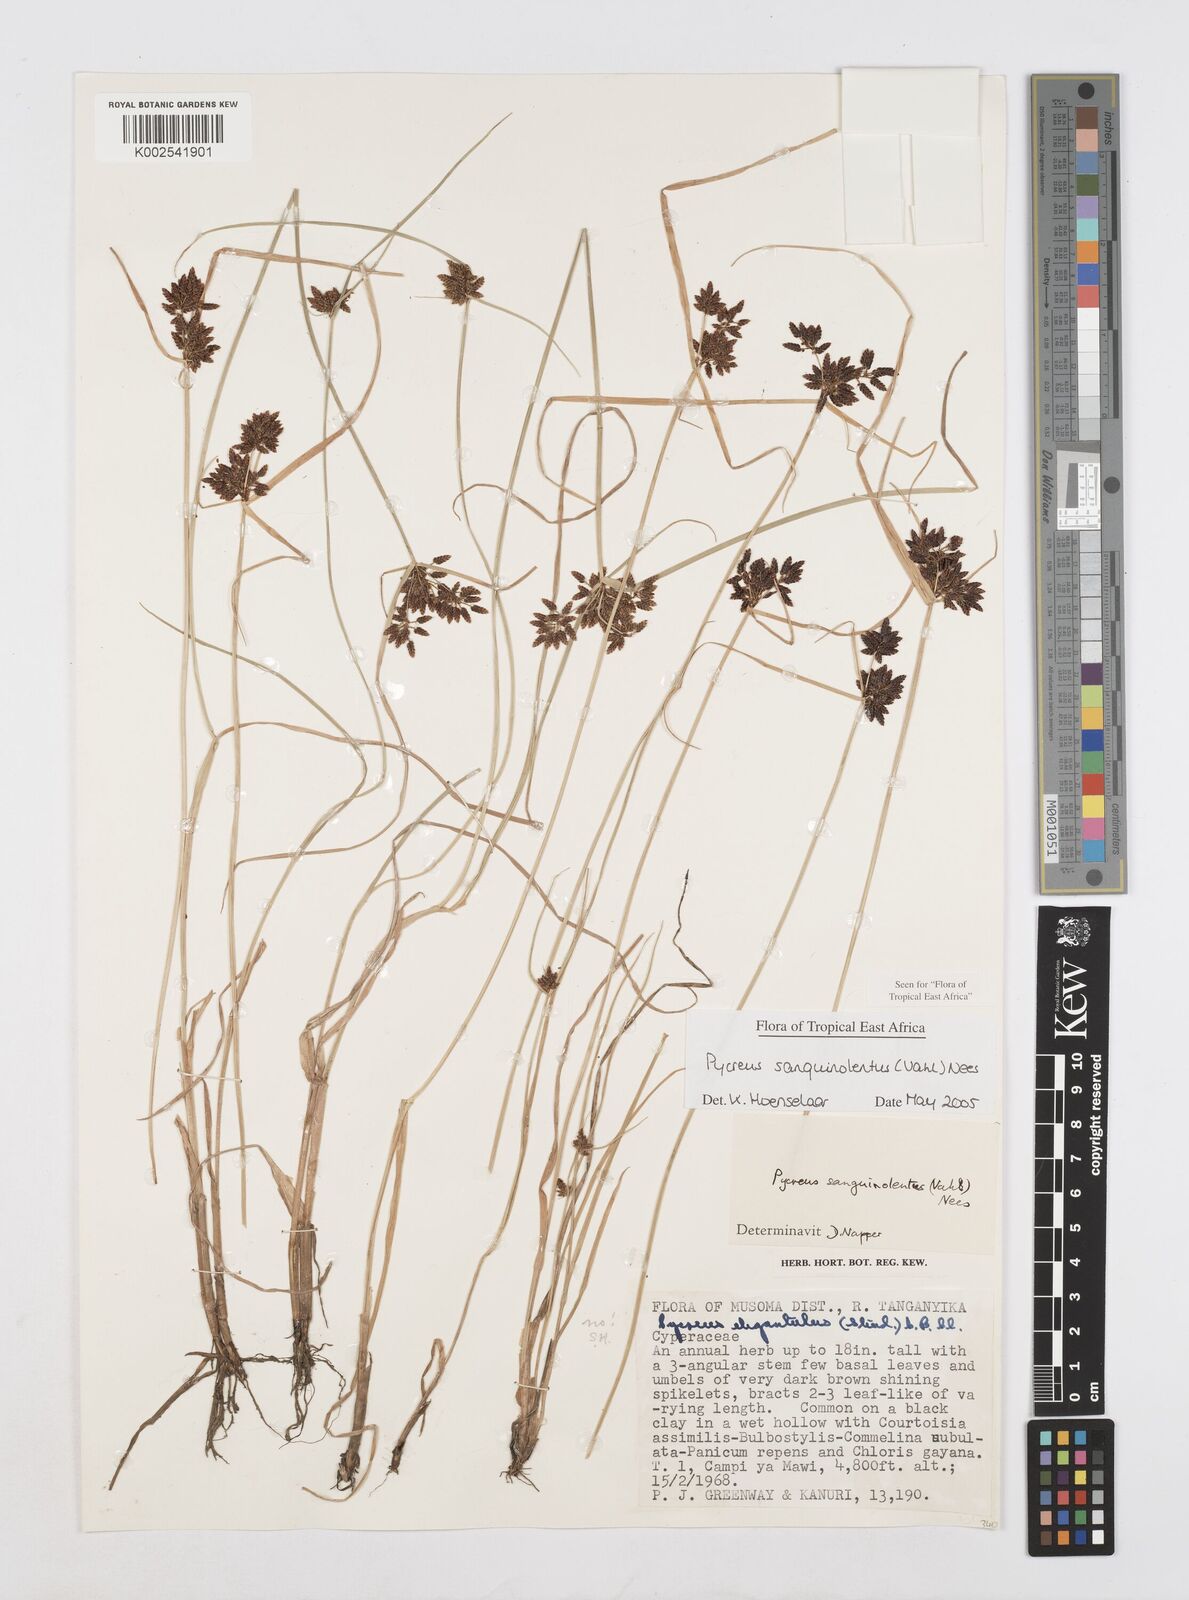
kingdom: Plantae
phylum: Tracheophyta
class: Liliopsida
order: Poales
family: Cyperaceae
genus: Cyperus
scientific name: Cyperus sanguinolentus
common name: Purpleglume flatsedge
